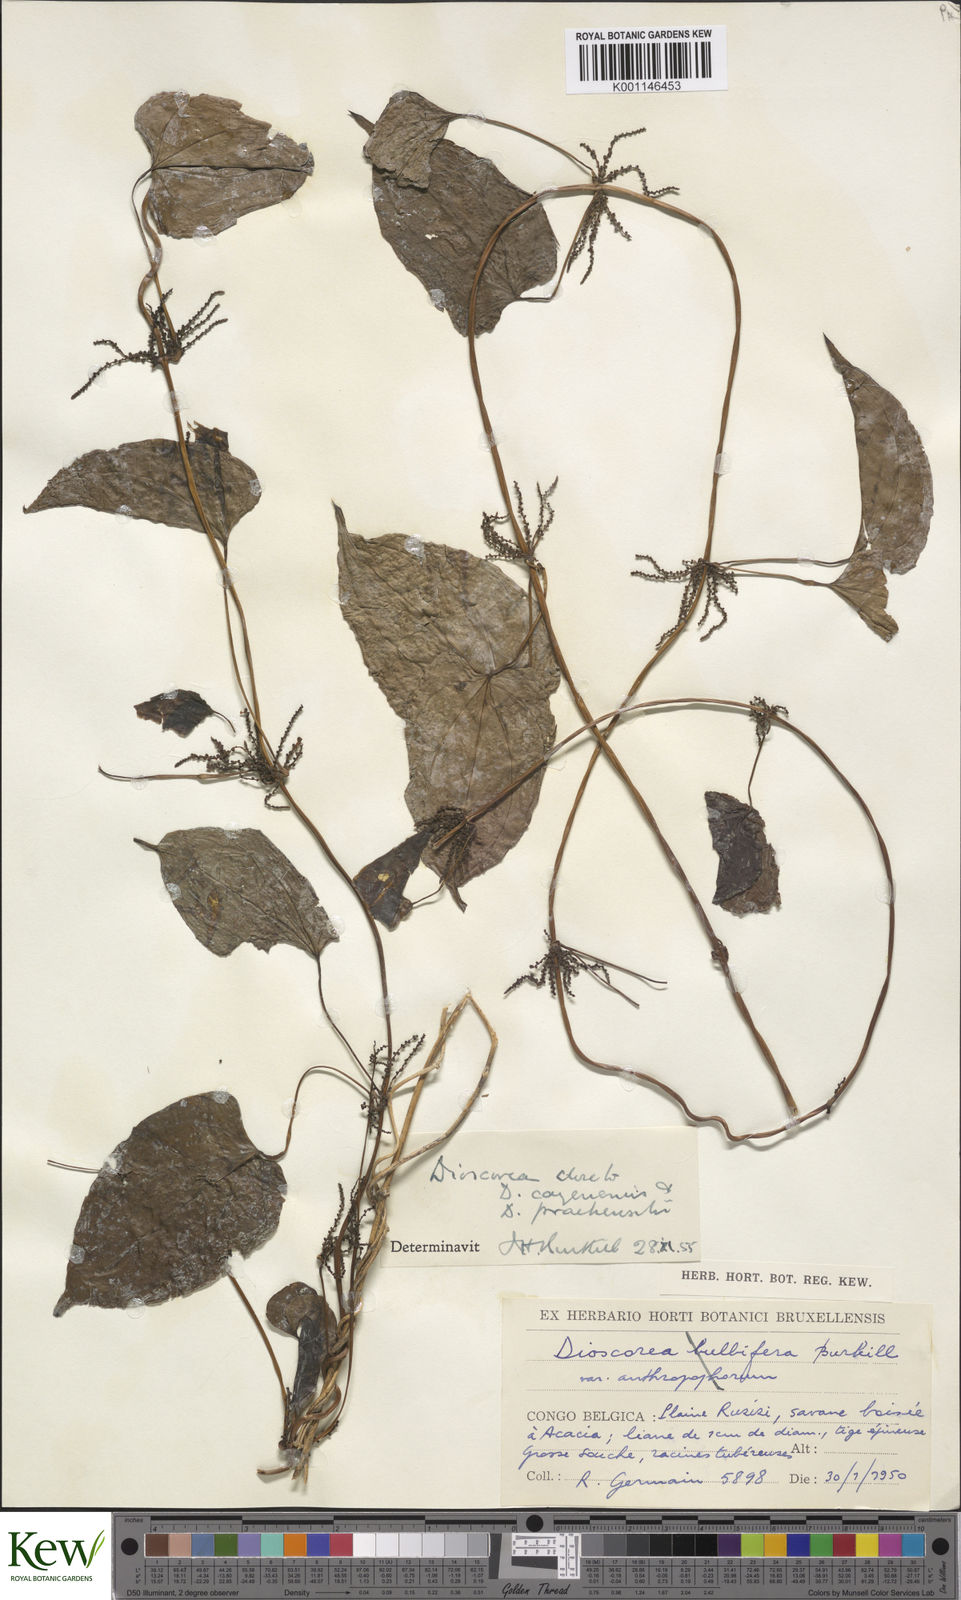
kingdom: Plantae
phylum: Tracheophyta
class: Liliopsida
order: Dioscoreales
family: Dioscoreaceae
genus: Dioscorea
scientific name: Dioscorea praehensilis
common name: Bush yam
